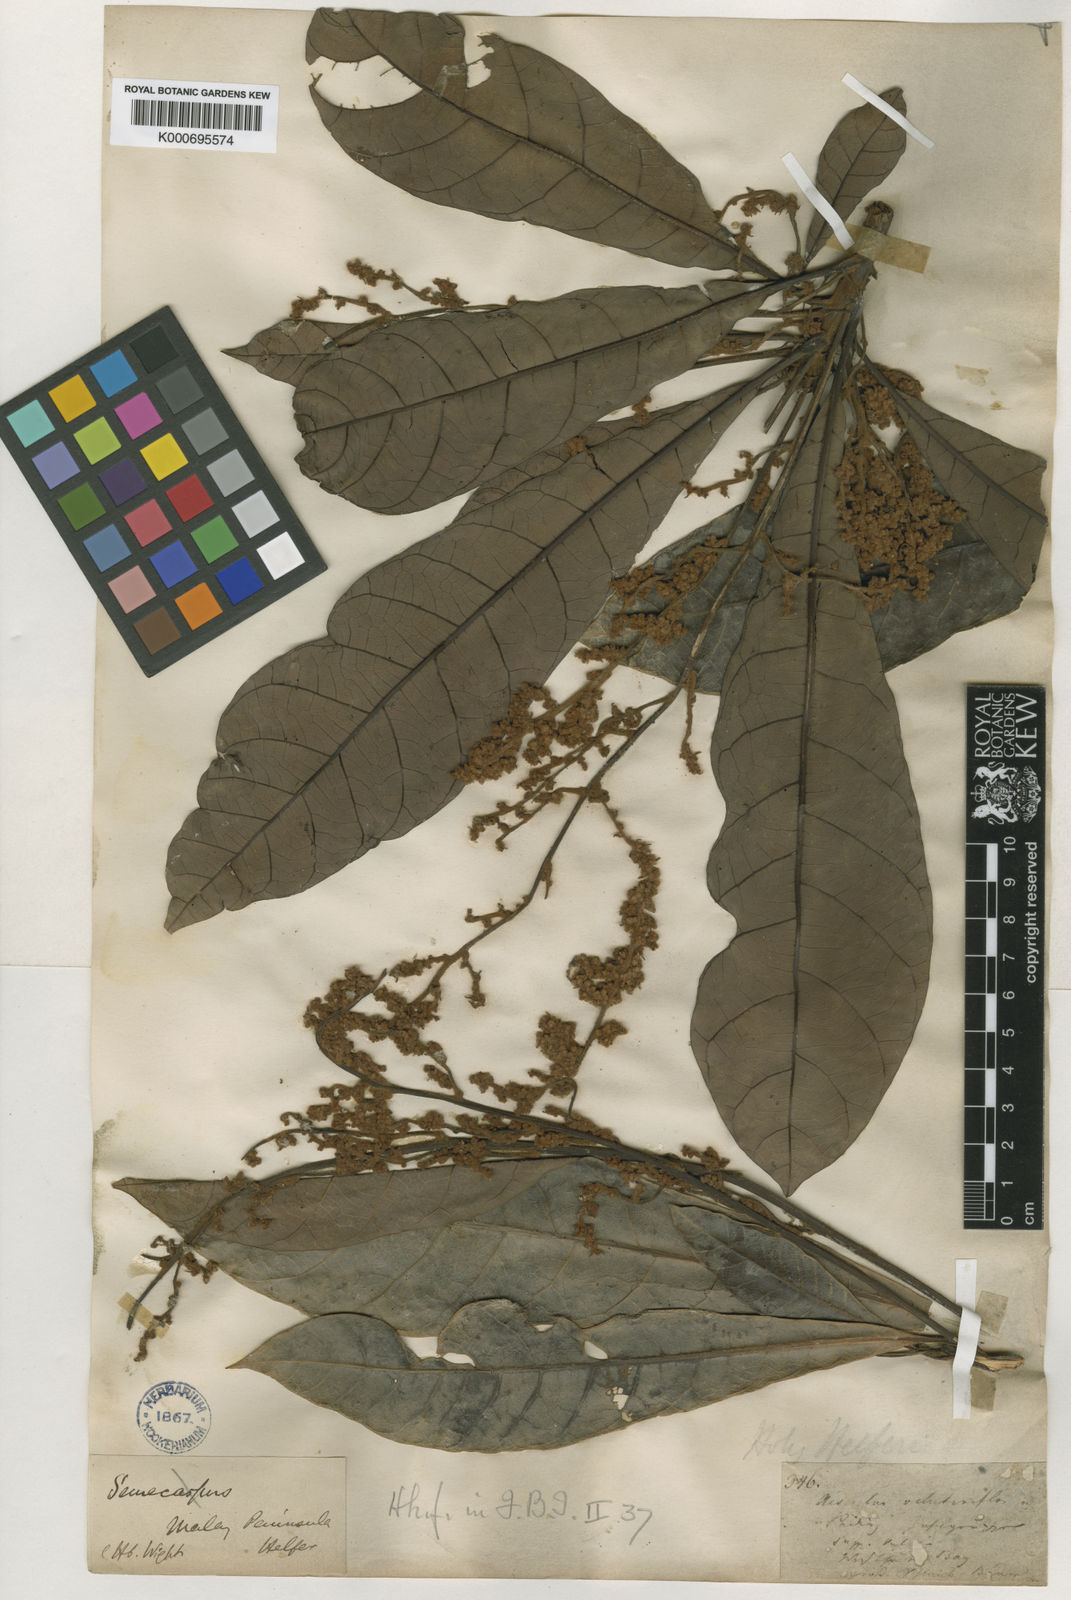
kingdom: Plantae
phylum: Tracheophyta
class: Magnoliopsida
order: Sapindales
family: Anacardiaceae
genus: Holigarna
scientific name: Holigarna helferi
